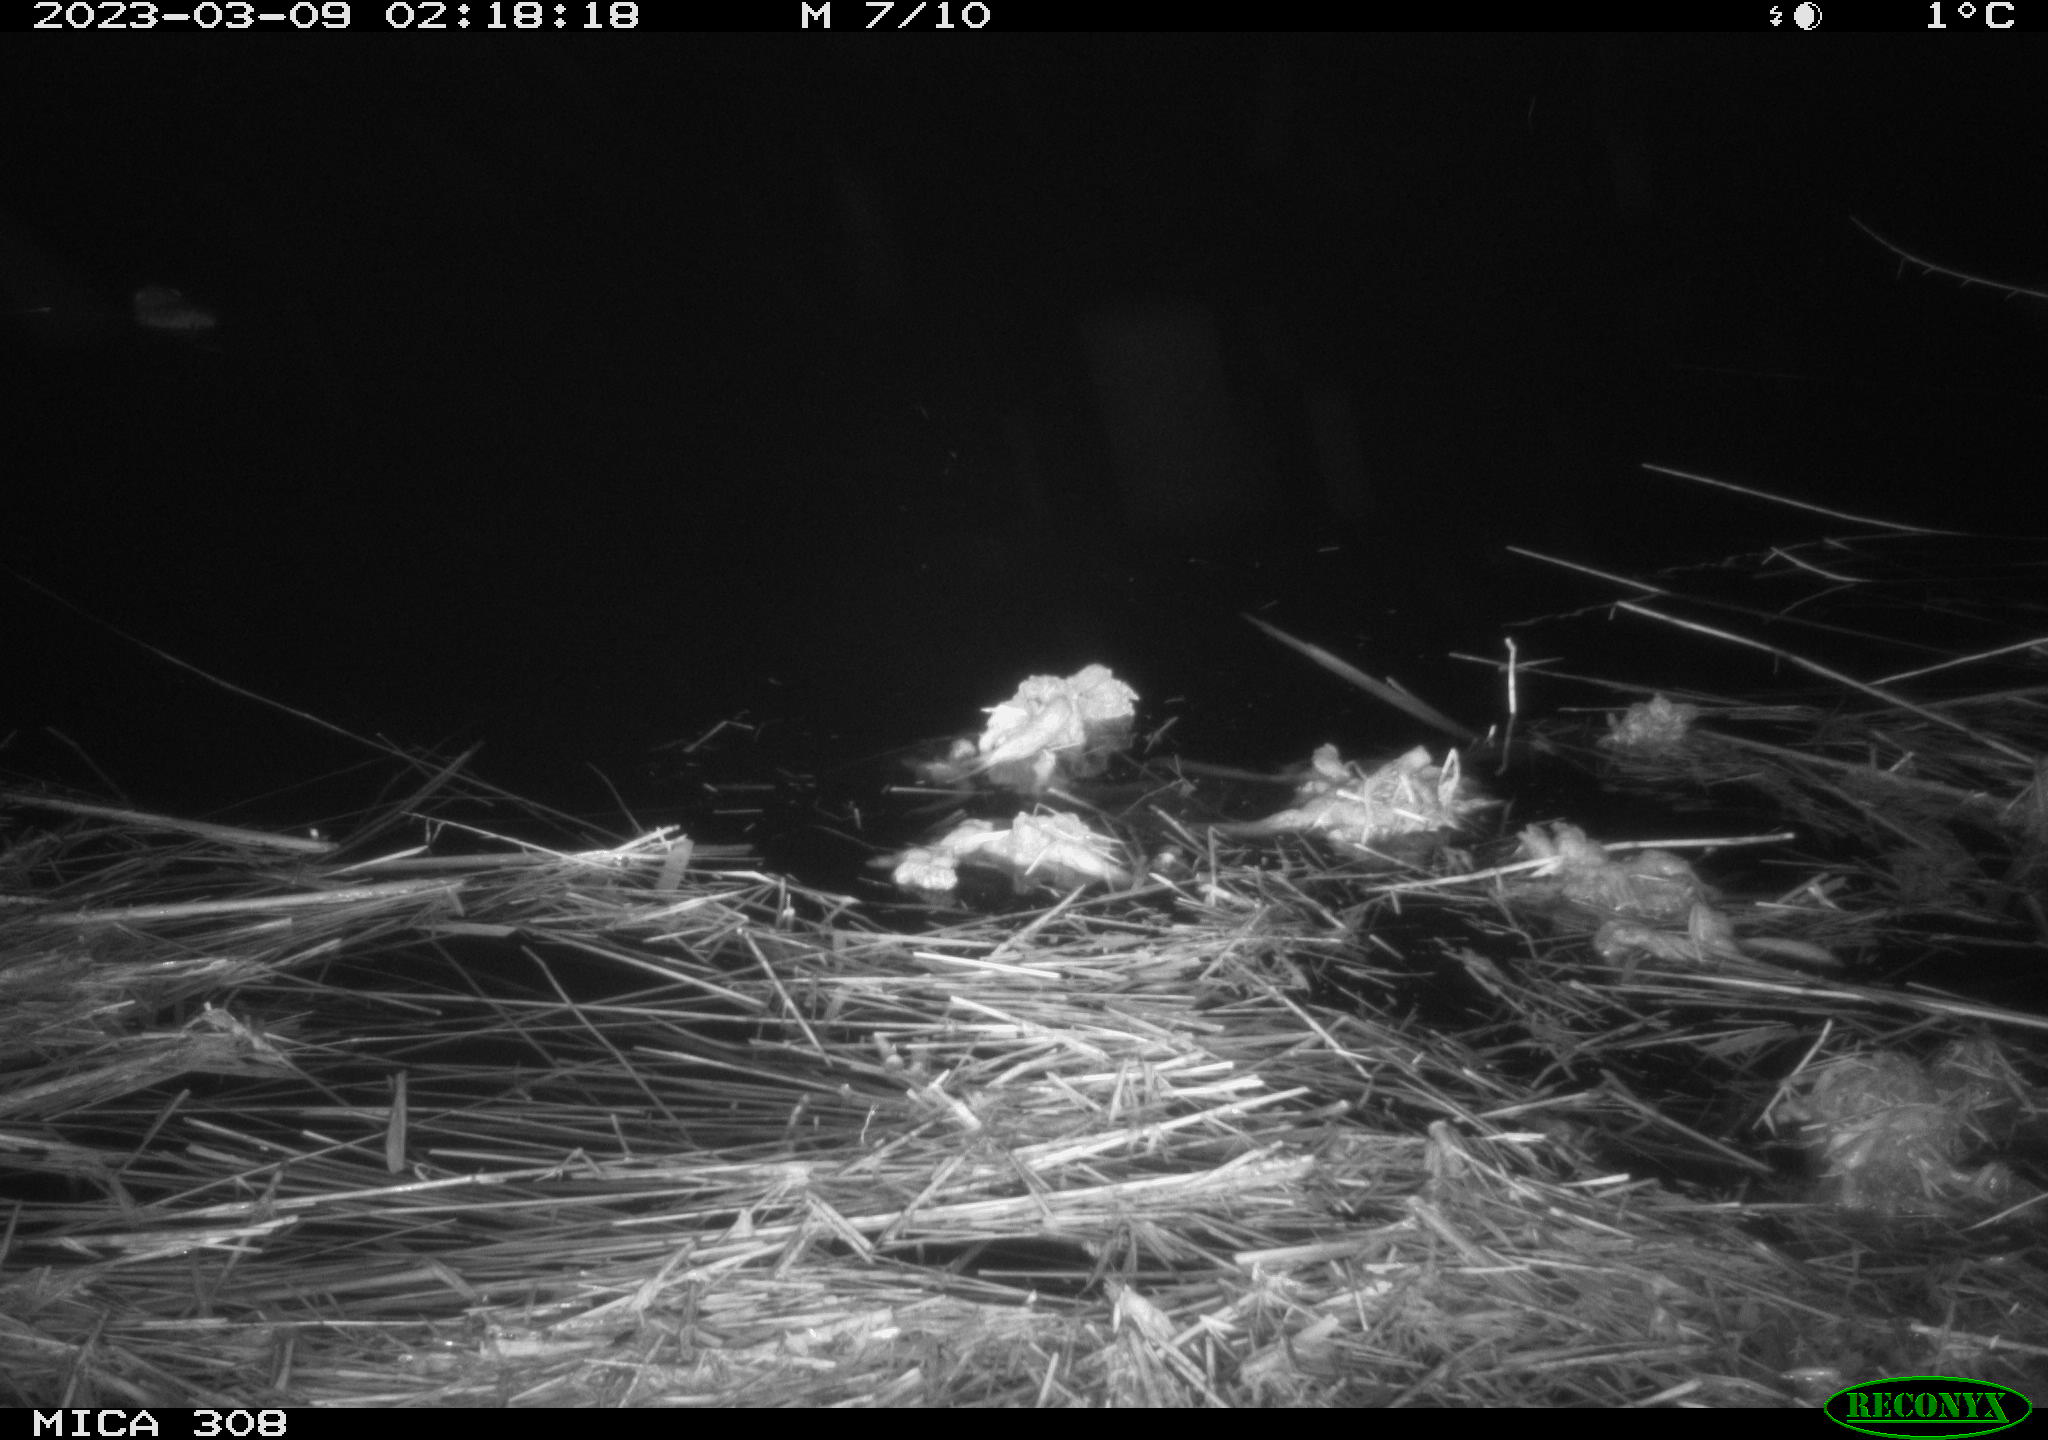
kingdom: Animalia
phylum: Chordata
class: Mammalia
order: Rodentia
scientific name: Rodentia
